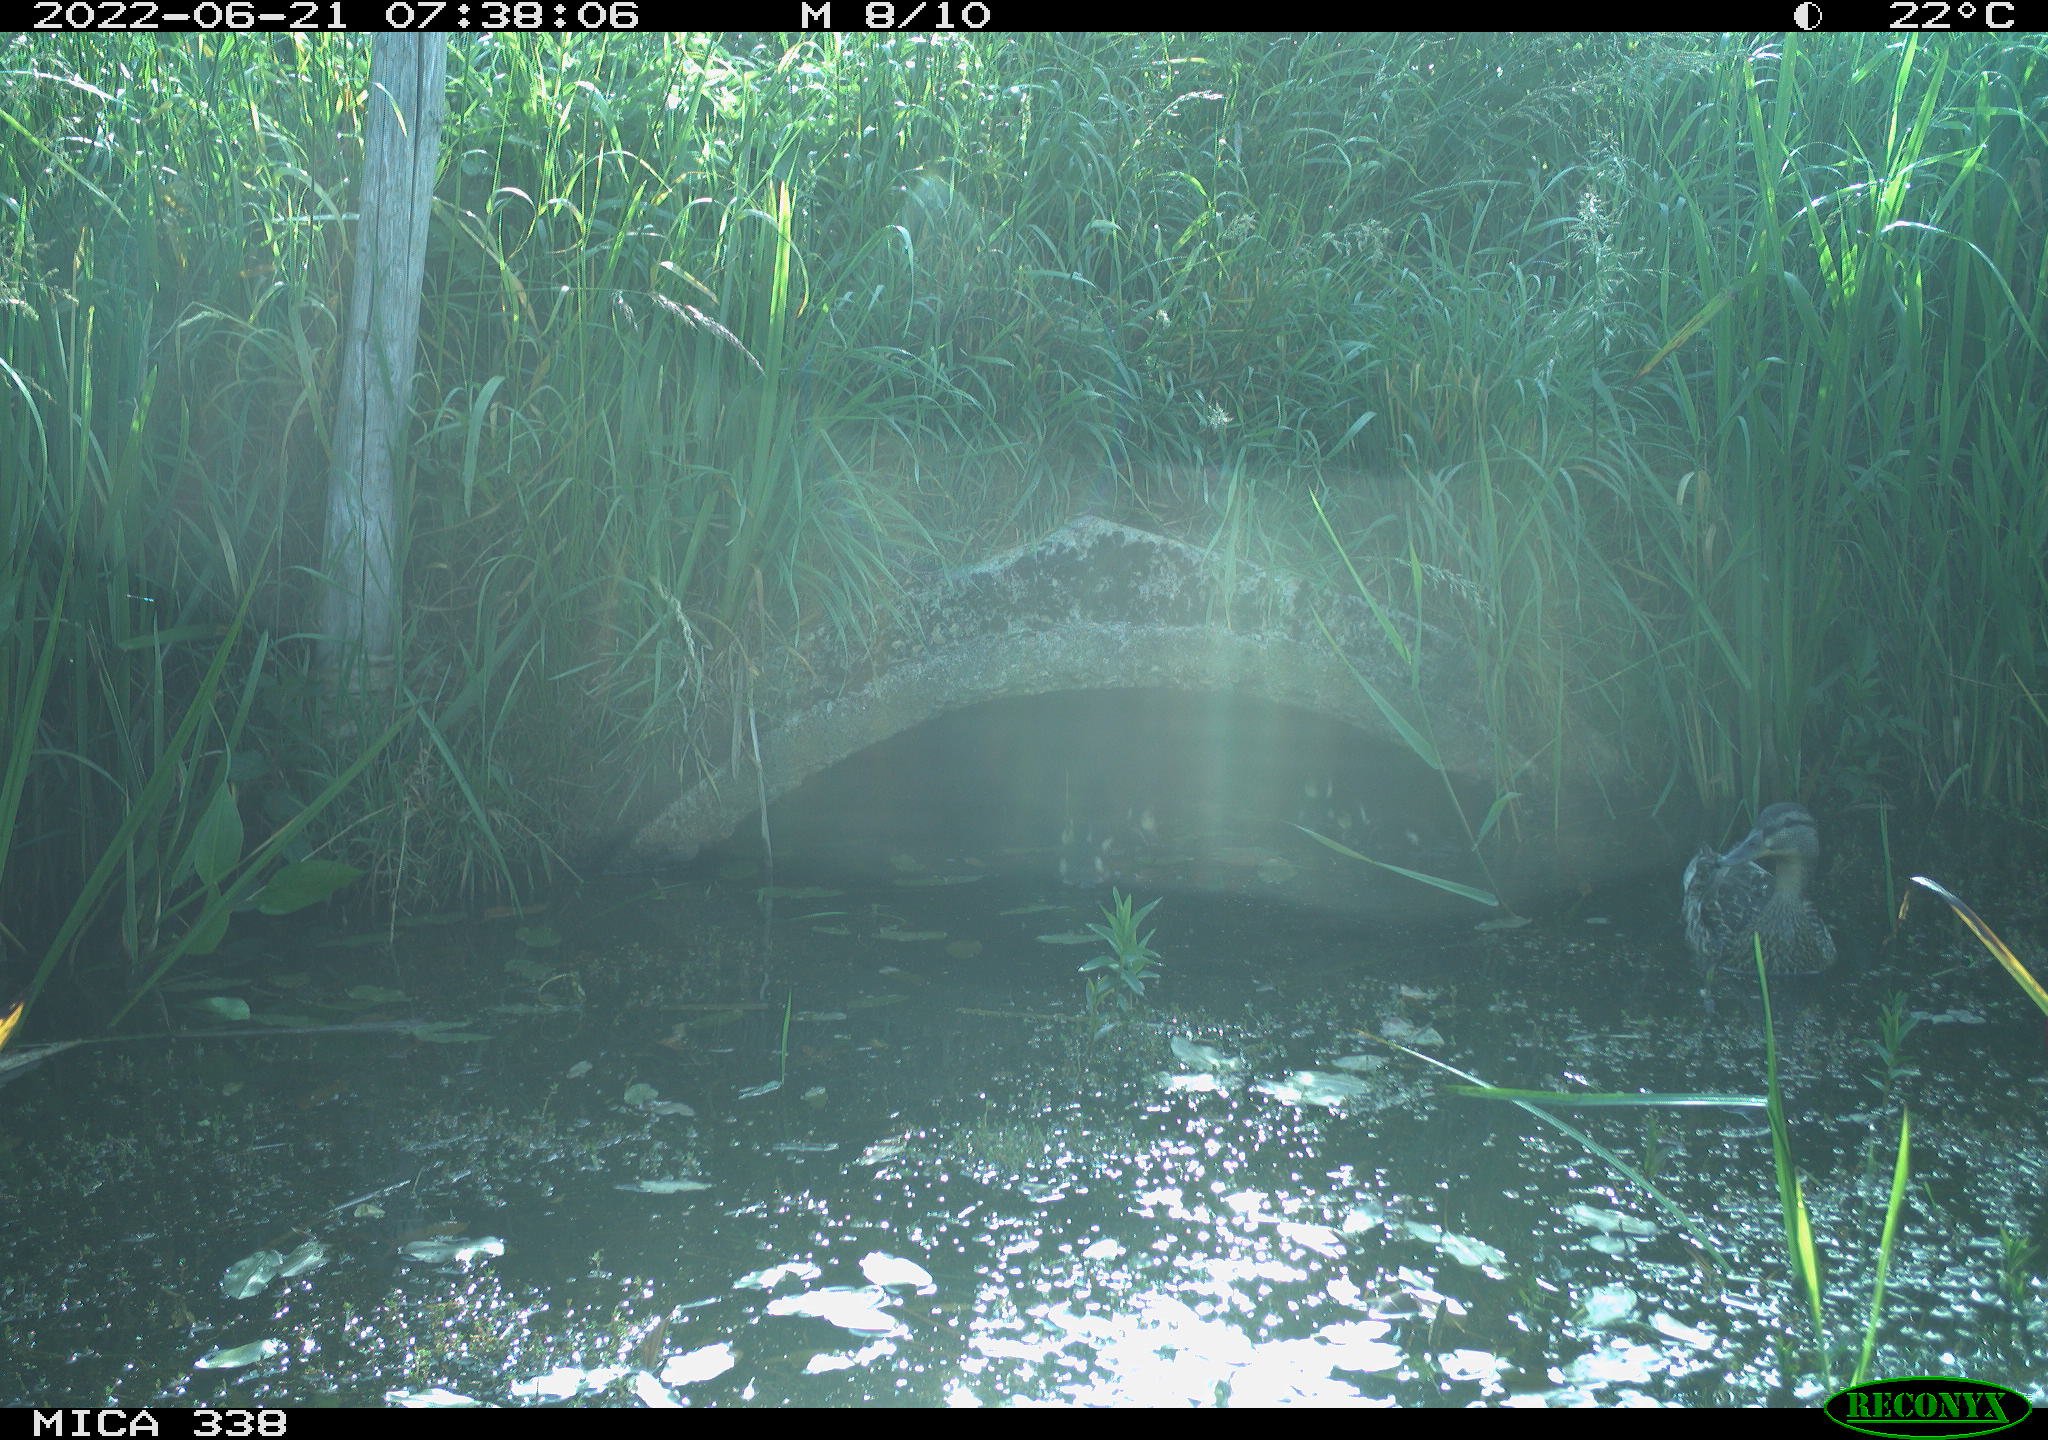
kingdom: Animalia
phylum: Chordata
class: Aves
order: Anseriformes
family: Anatidae
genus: Anas
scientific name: Anas platyrhynchos
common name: Mallard
